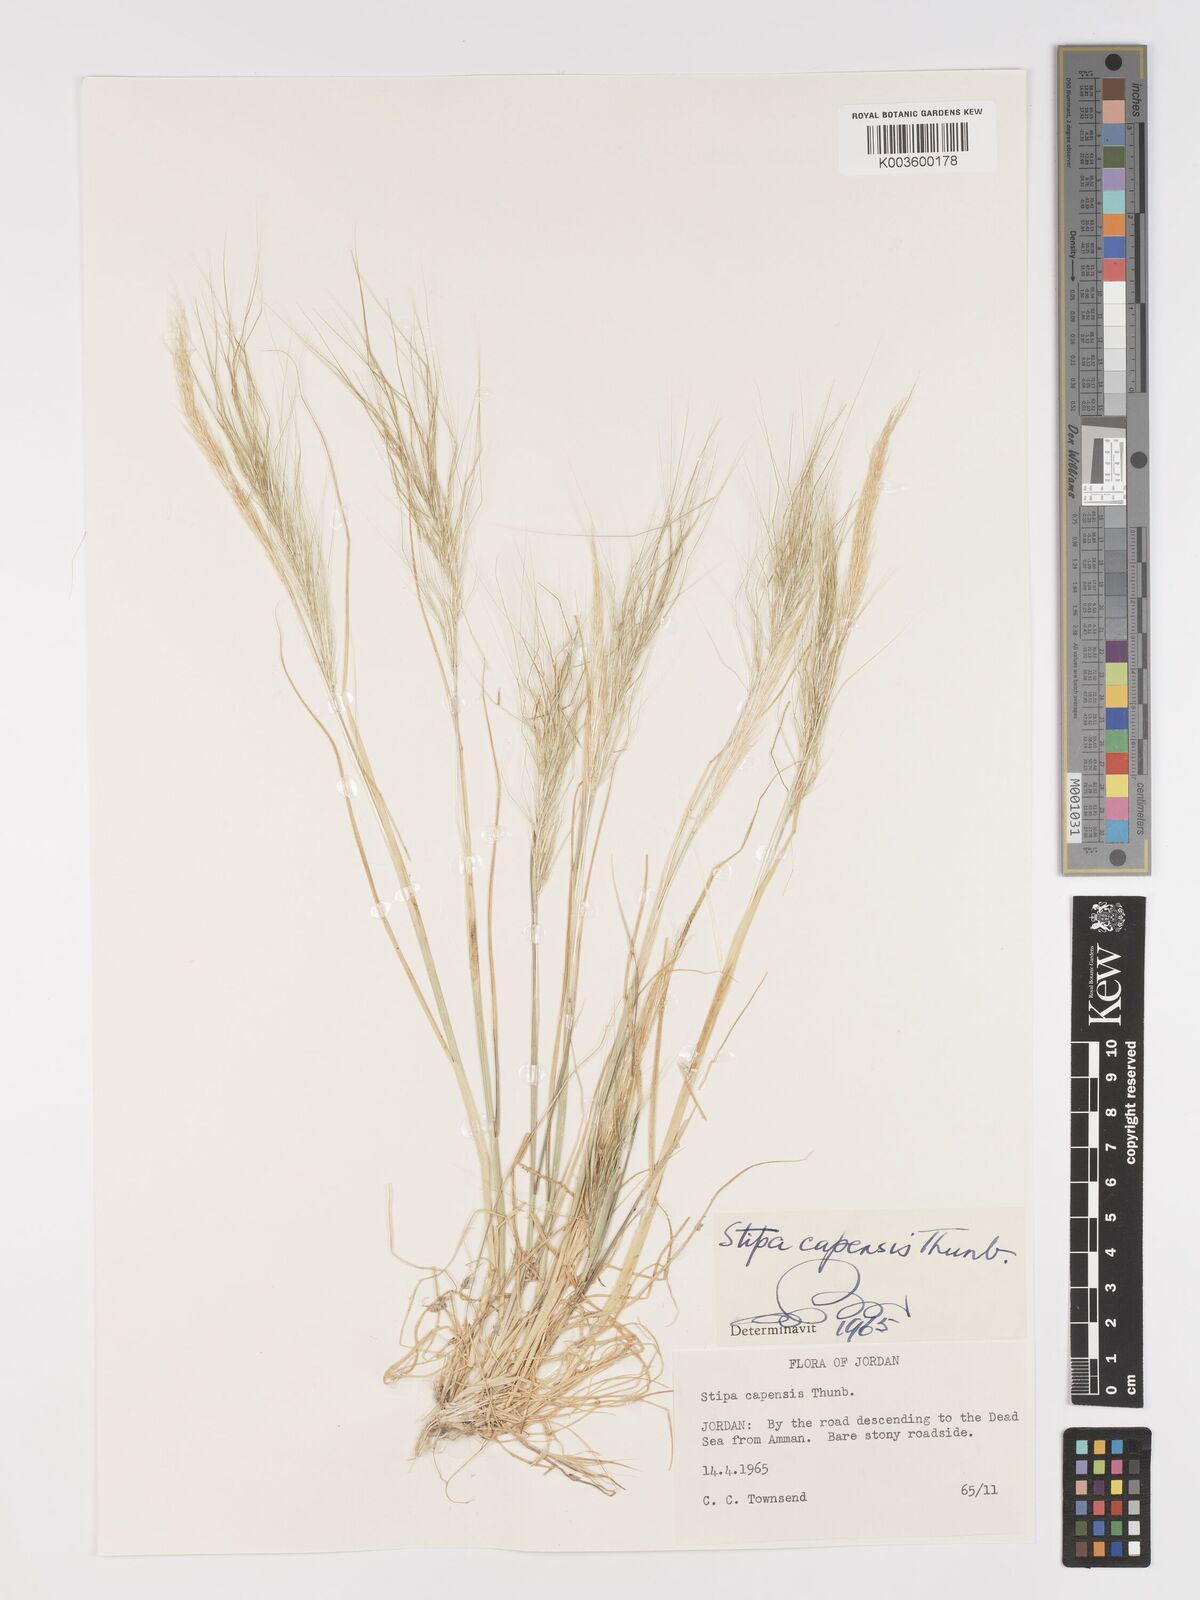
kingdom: Plantae
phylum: Tracheophyta
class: Liliopsida
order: Poales
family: Poaceae
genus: Stipellula
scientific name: Stipellula capensis
